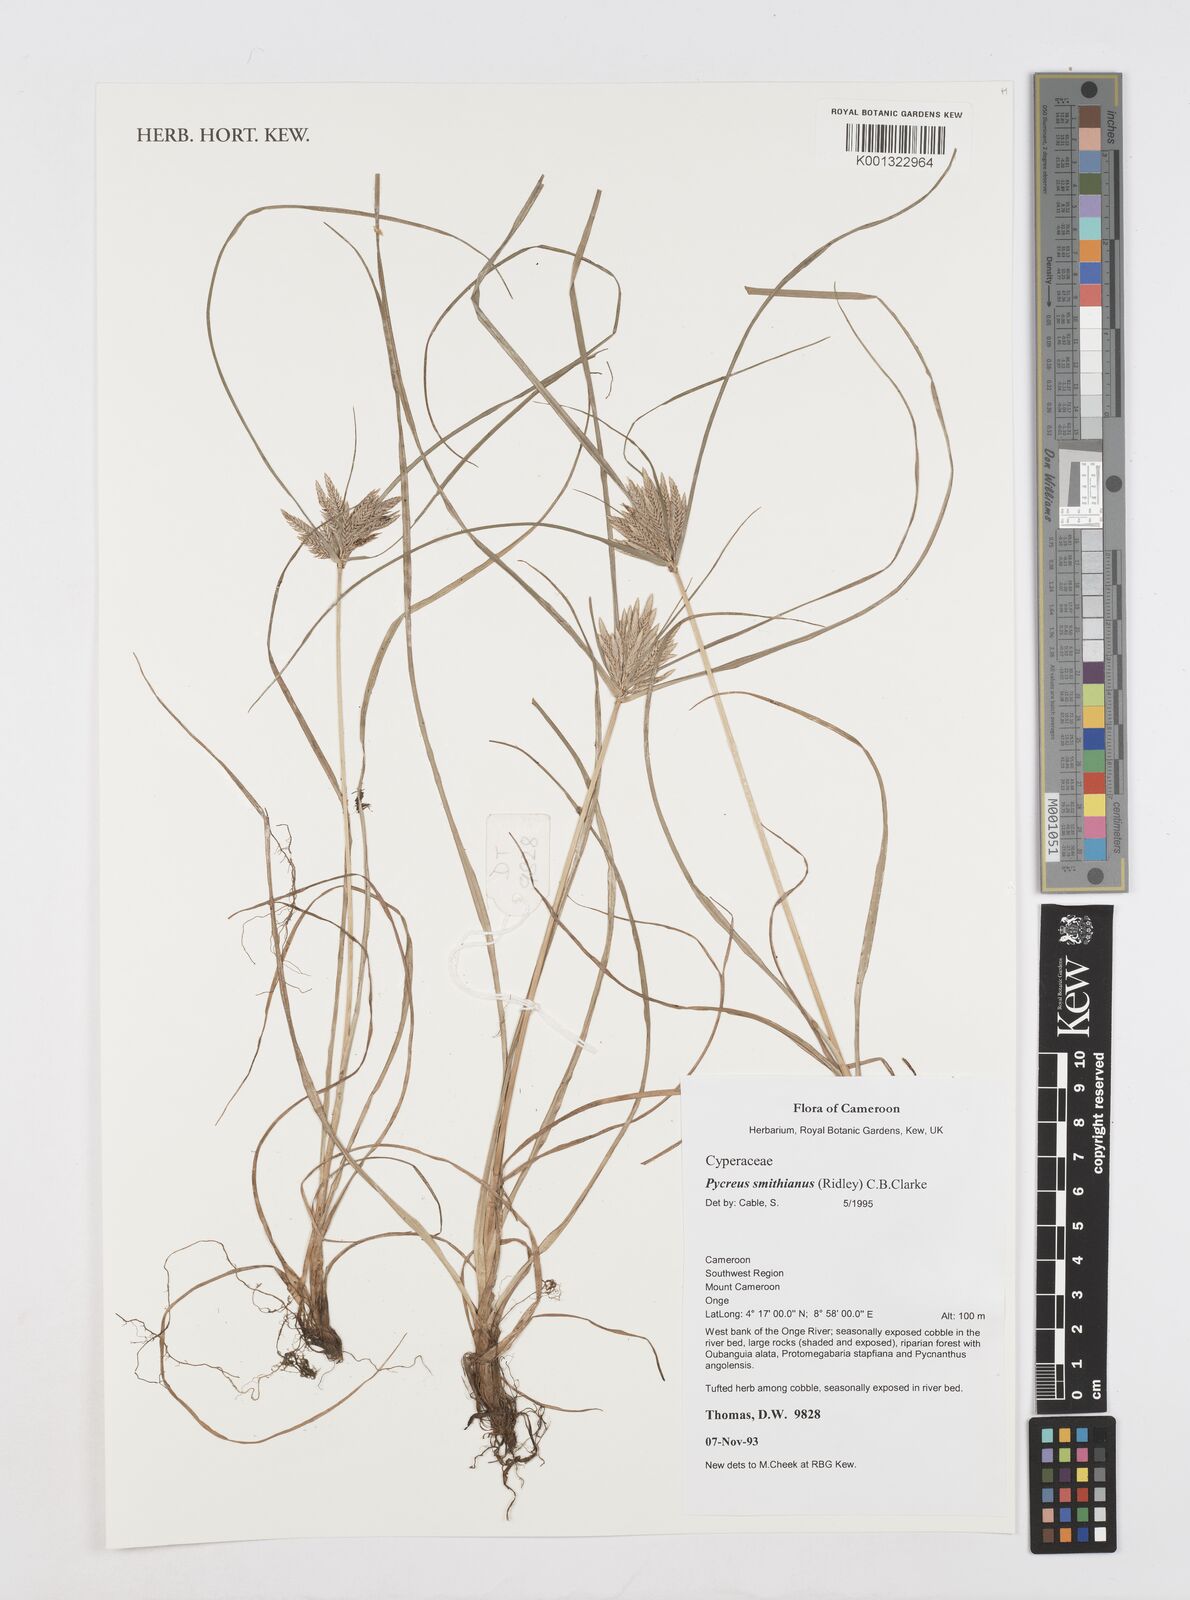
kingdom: Plantae
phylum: Tracheophyta
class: Liliopsida
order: Poales
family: Cyperaceae
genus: Cyperus
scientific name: Cyperus smithianus
